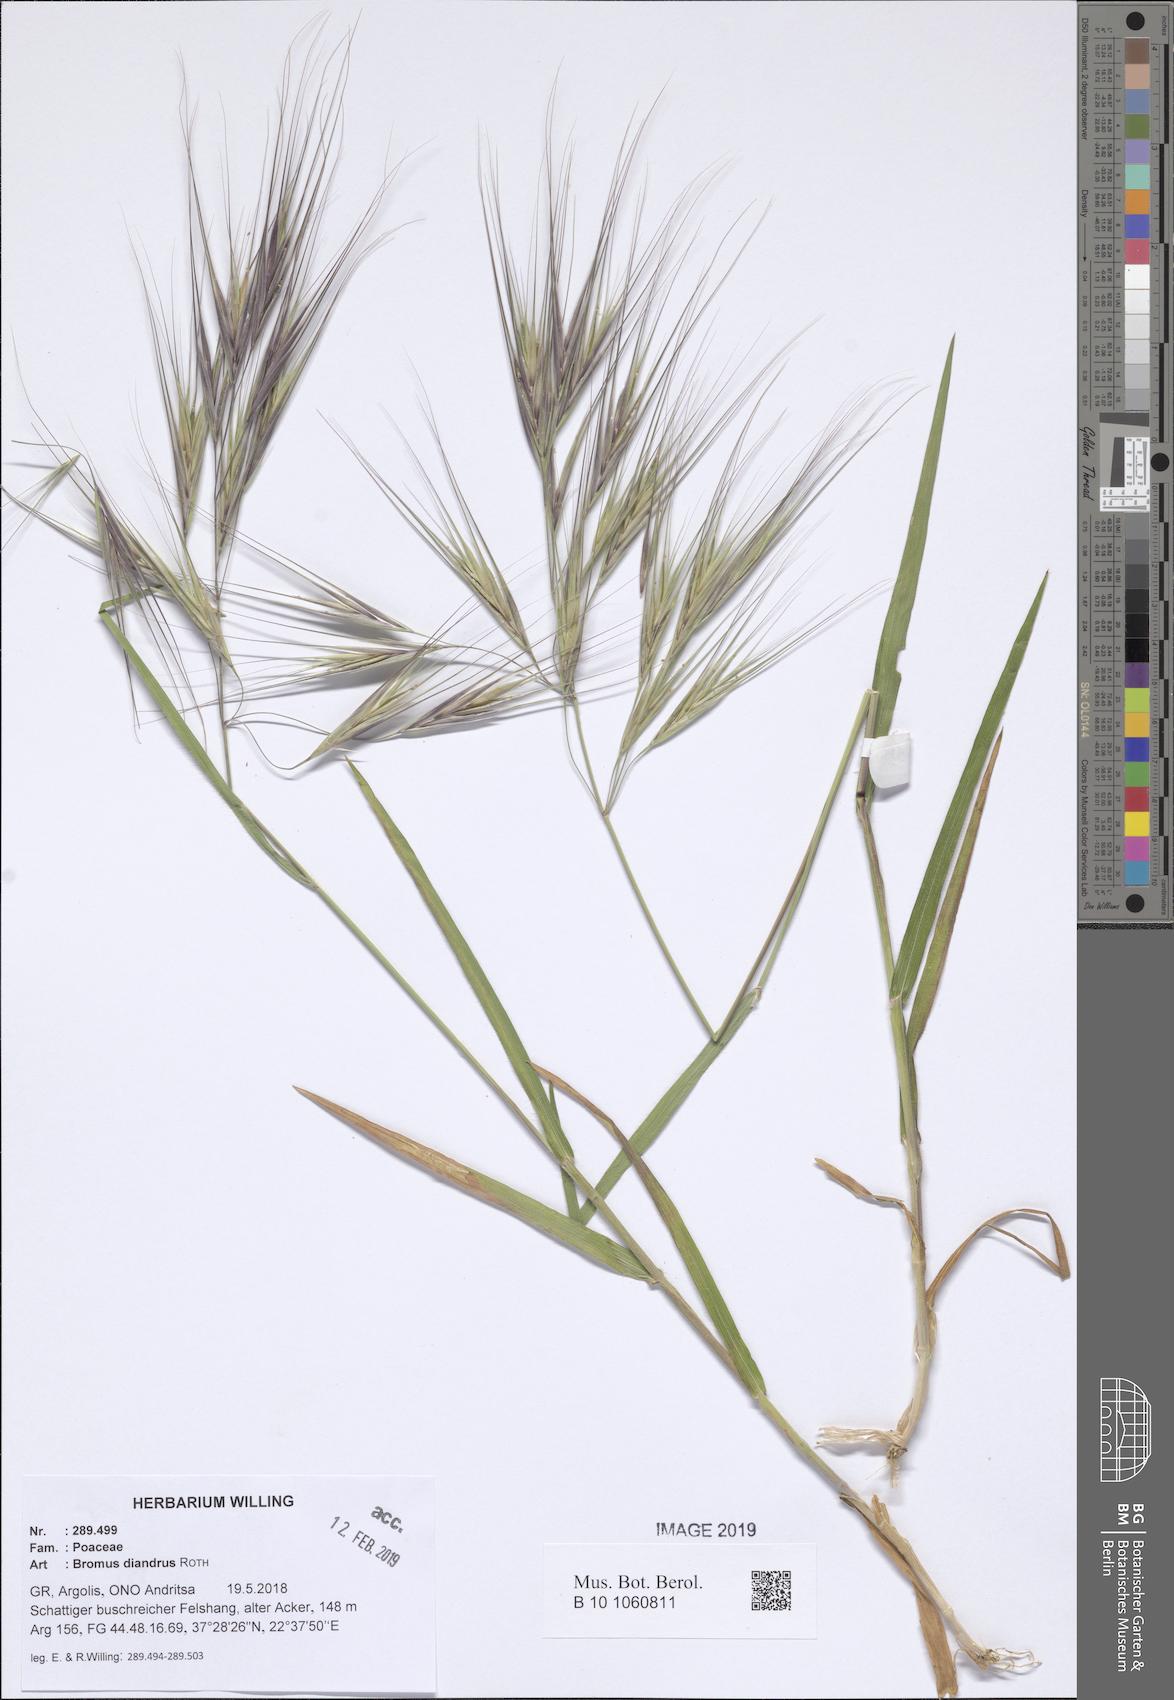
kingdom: Plantae
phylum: Tracheophyta
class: Liliopsida
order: Poales
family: Poaceae
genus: Bromus
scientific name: Bromus diandrus
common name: Ripgut brome
